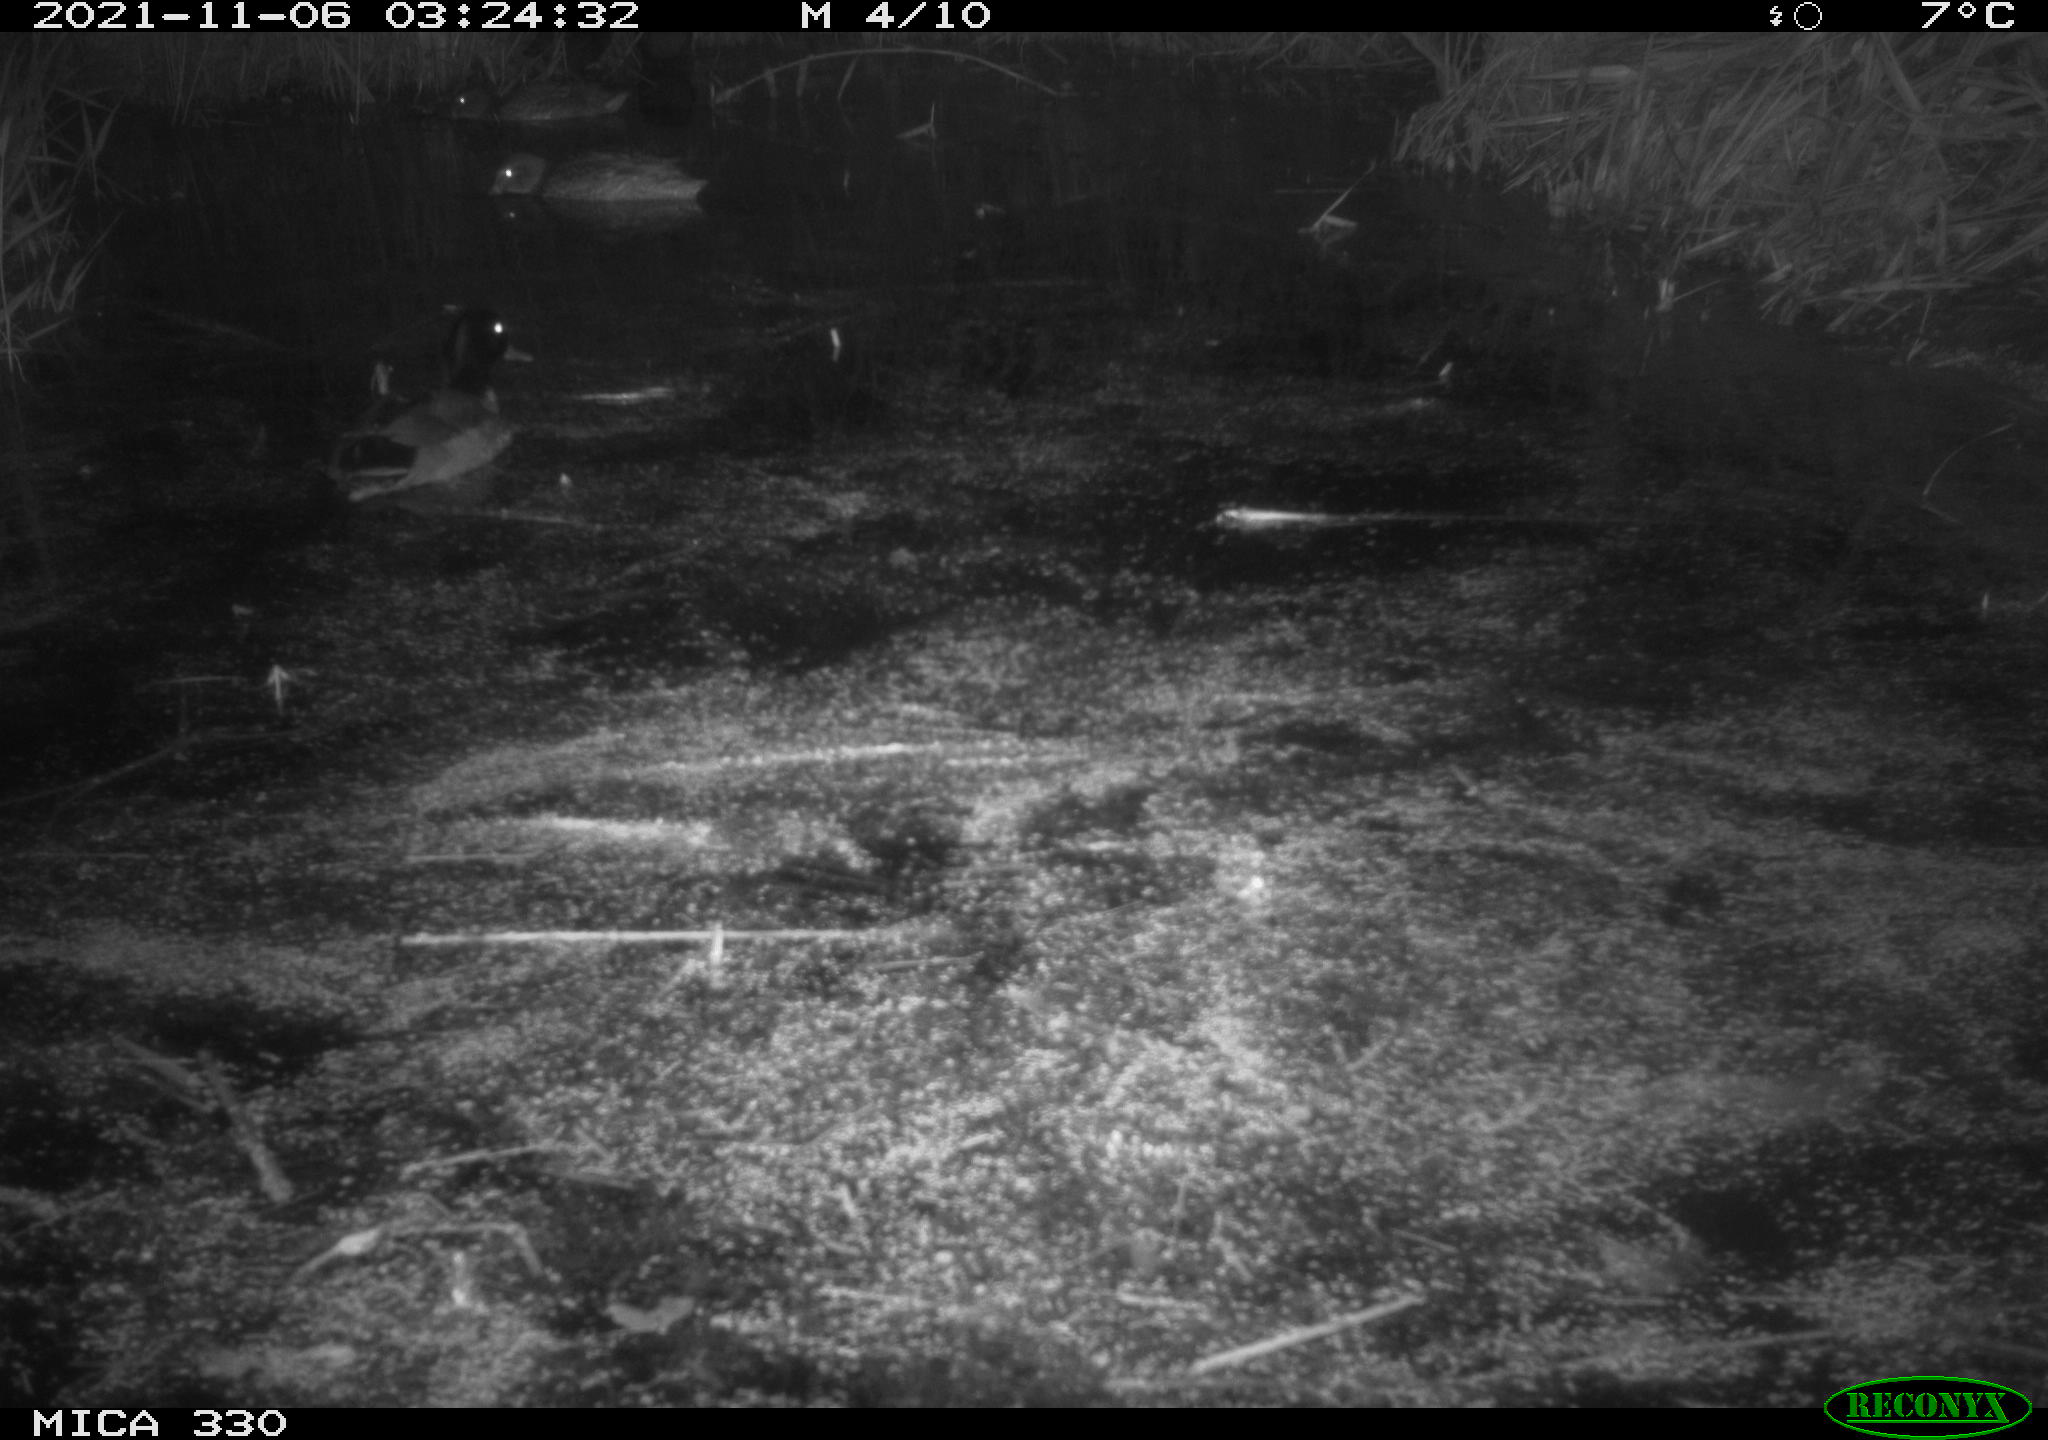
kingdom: Animalia
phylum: Chordata
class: Aves
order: Anseriformes
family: Anatidae
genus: Anas
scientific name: Anas platyrhynchos
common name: Mallard
